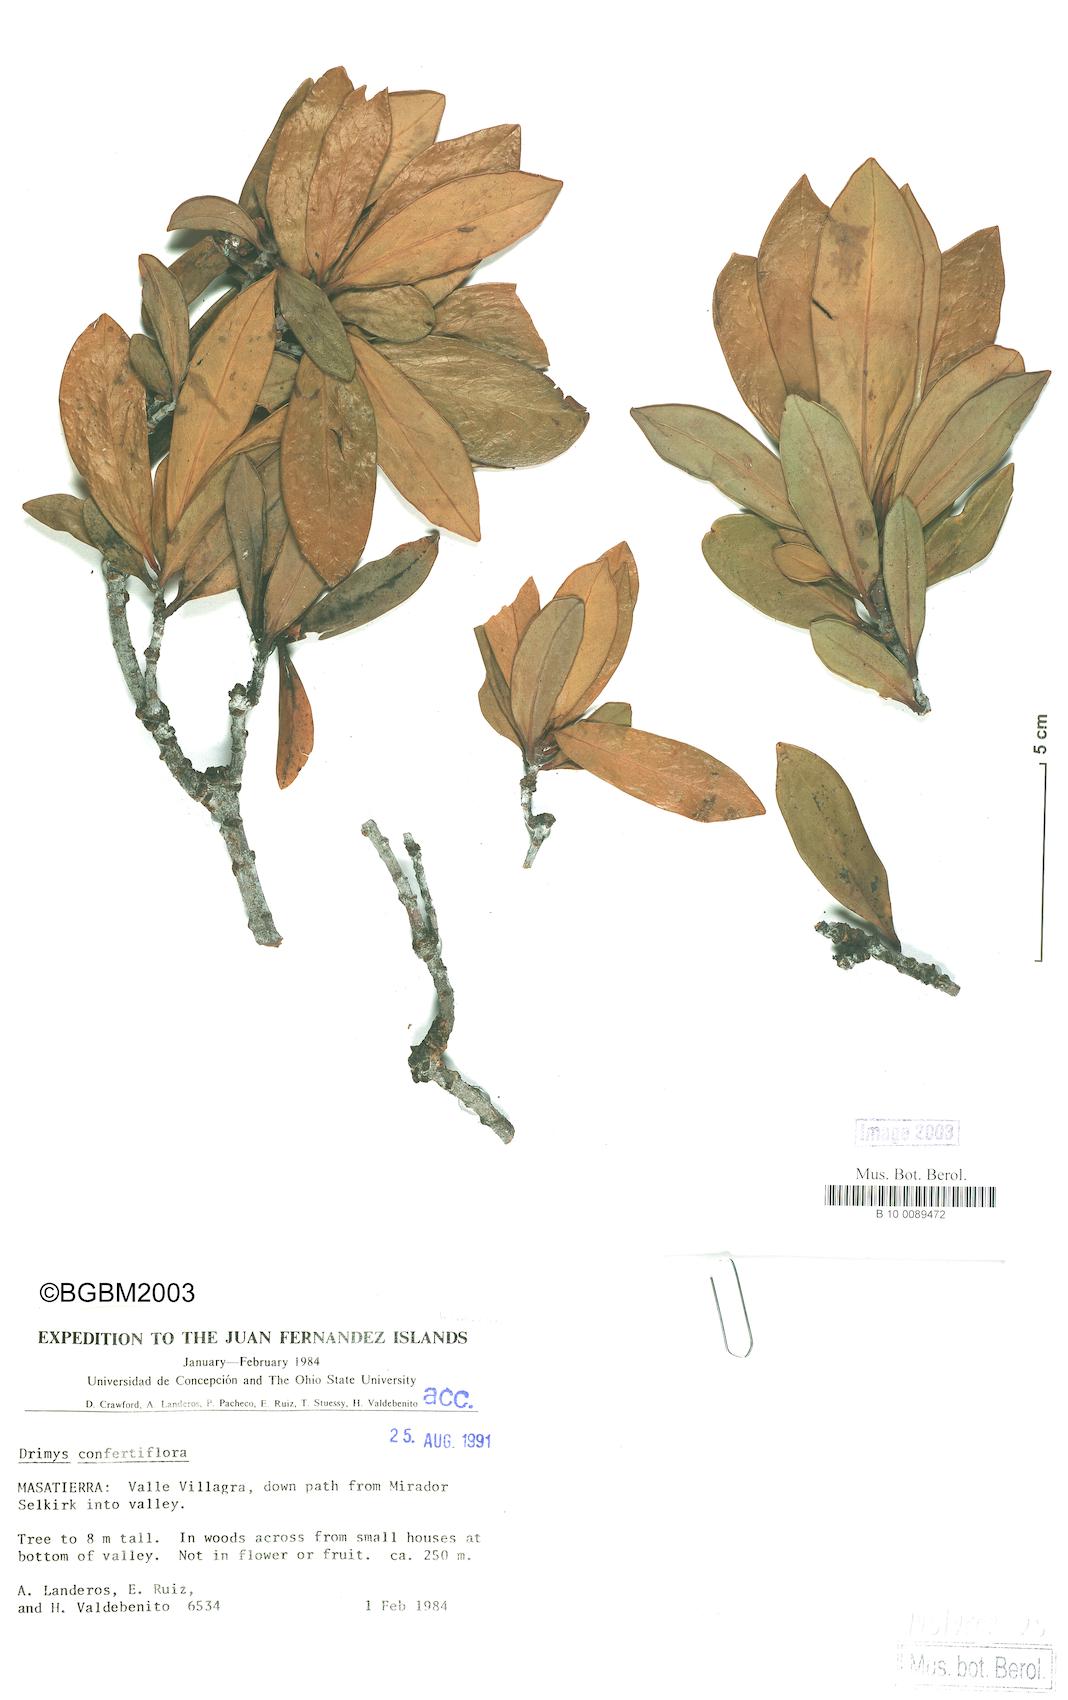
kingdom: Plantae
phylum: Tracheophyta
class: Magnoliopsida
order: Canellales
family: Winteraceae
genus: Drimys
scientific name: Drimys confertiflora
